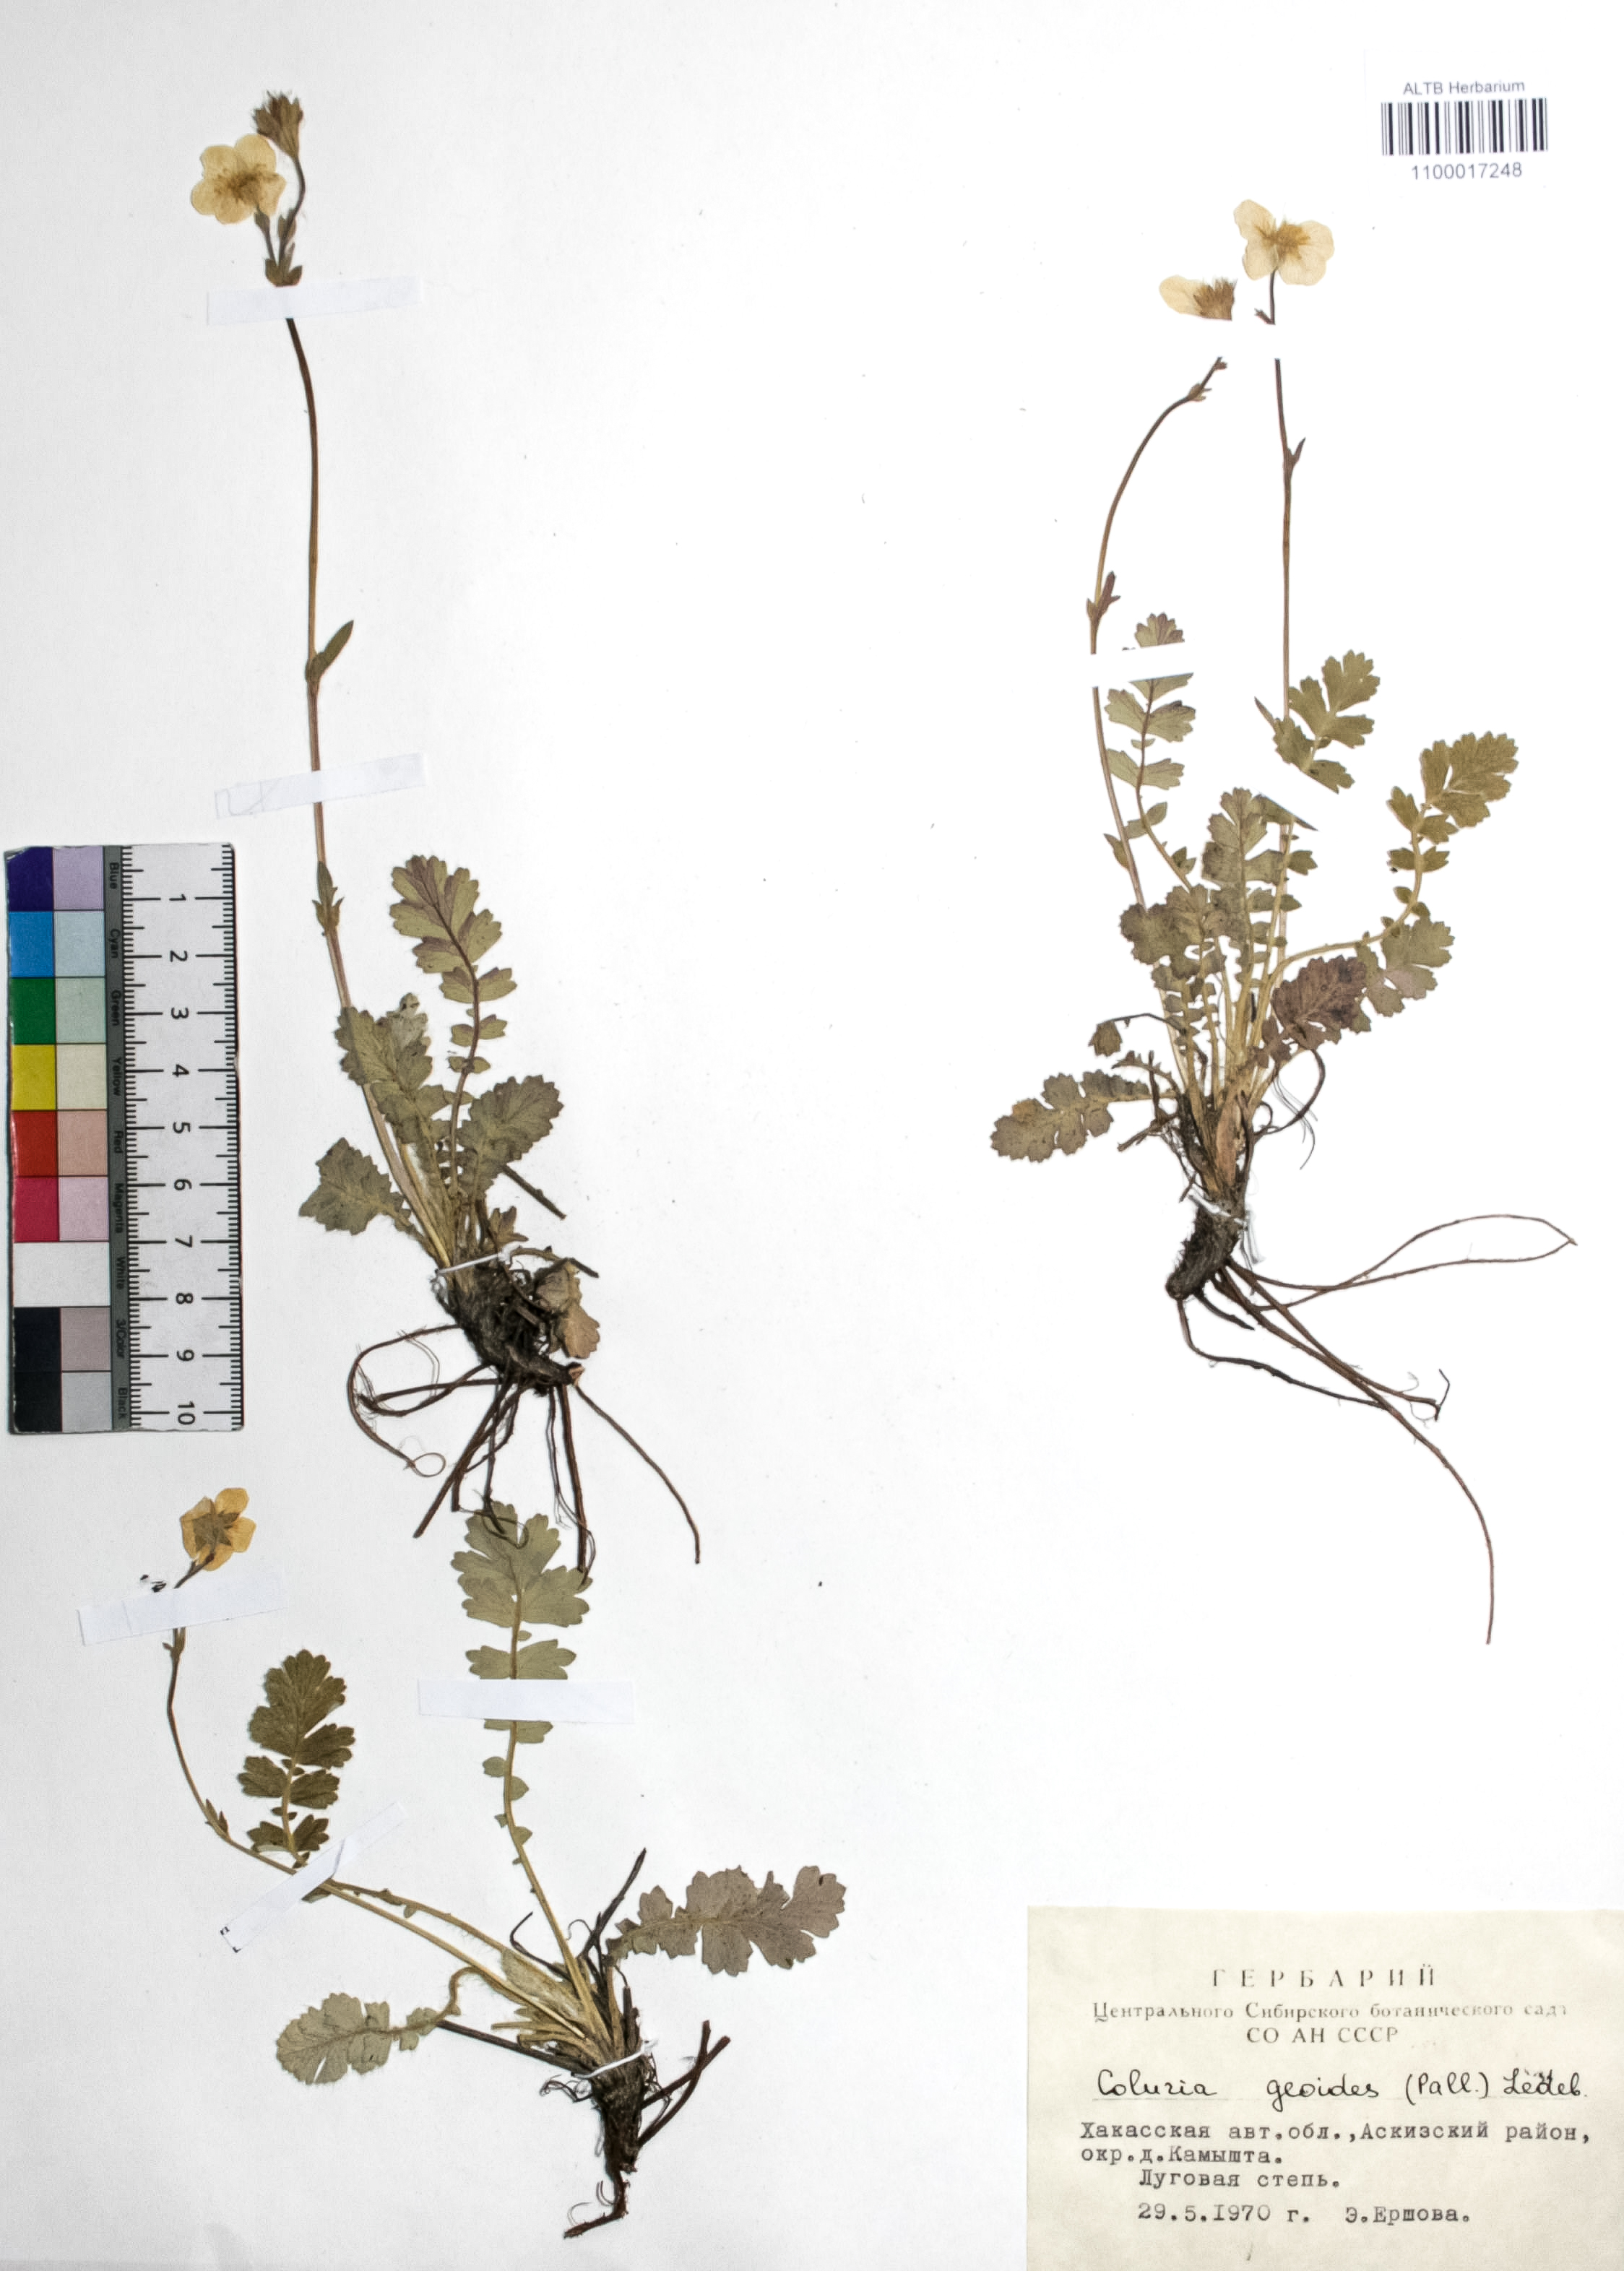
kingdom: Plantae
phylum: Tracheophyta
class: Magnoliopsida
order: Rosales
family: Rosaceae
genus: Geum
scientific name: Geum geoides
